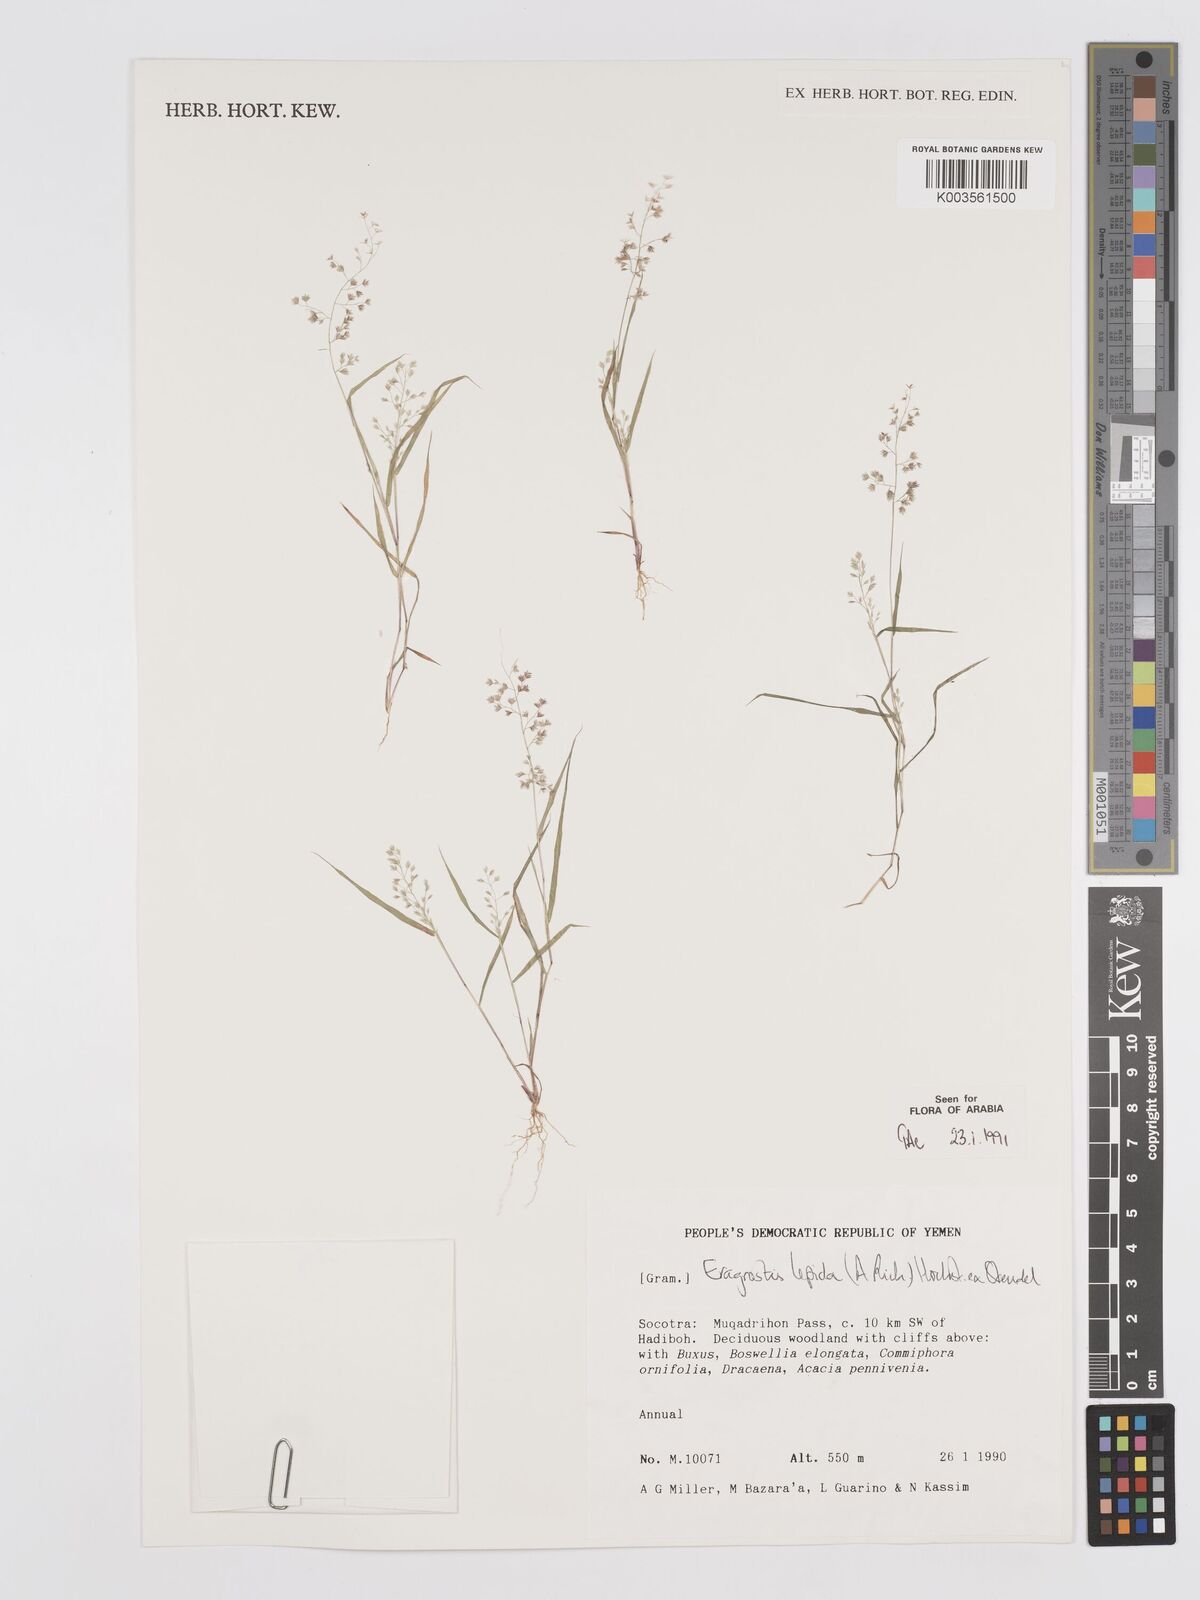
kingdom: Plantae
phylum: Tracheophyta
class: Liliopsida
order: Poales
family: Poaceae
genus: Eragrostis
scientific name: Eragrostis lepida
